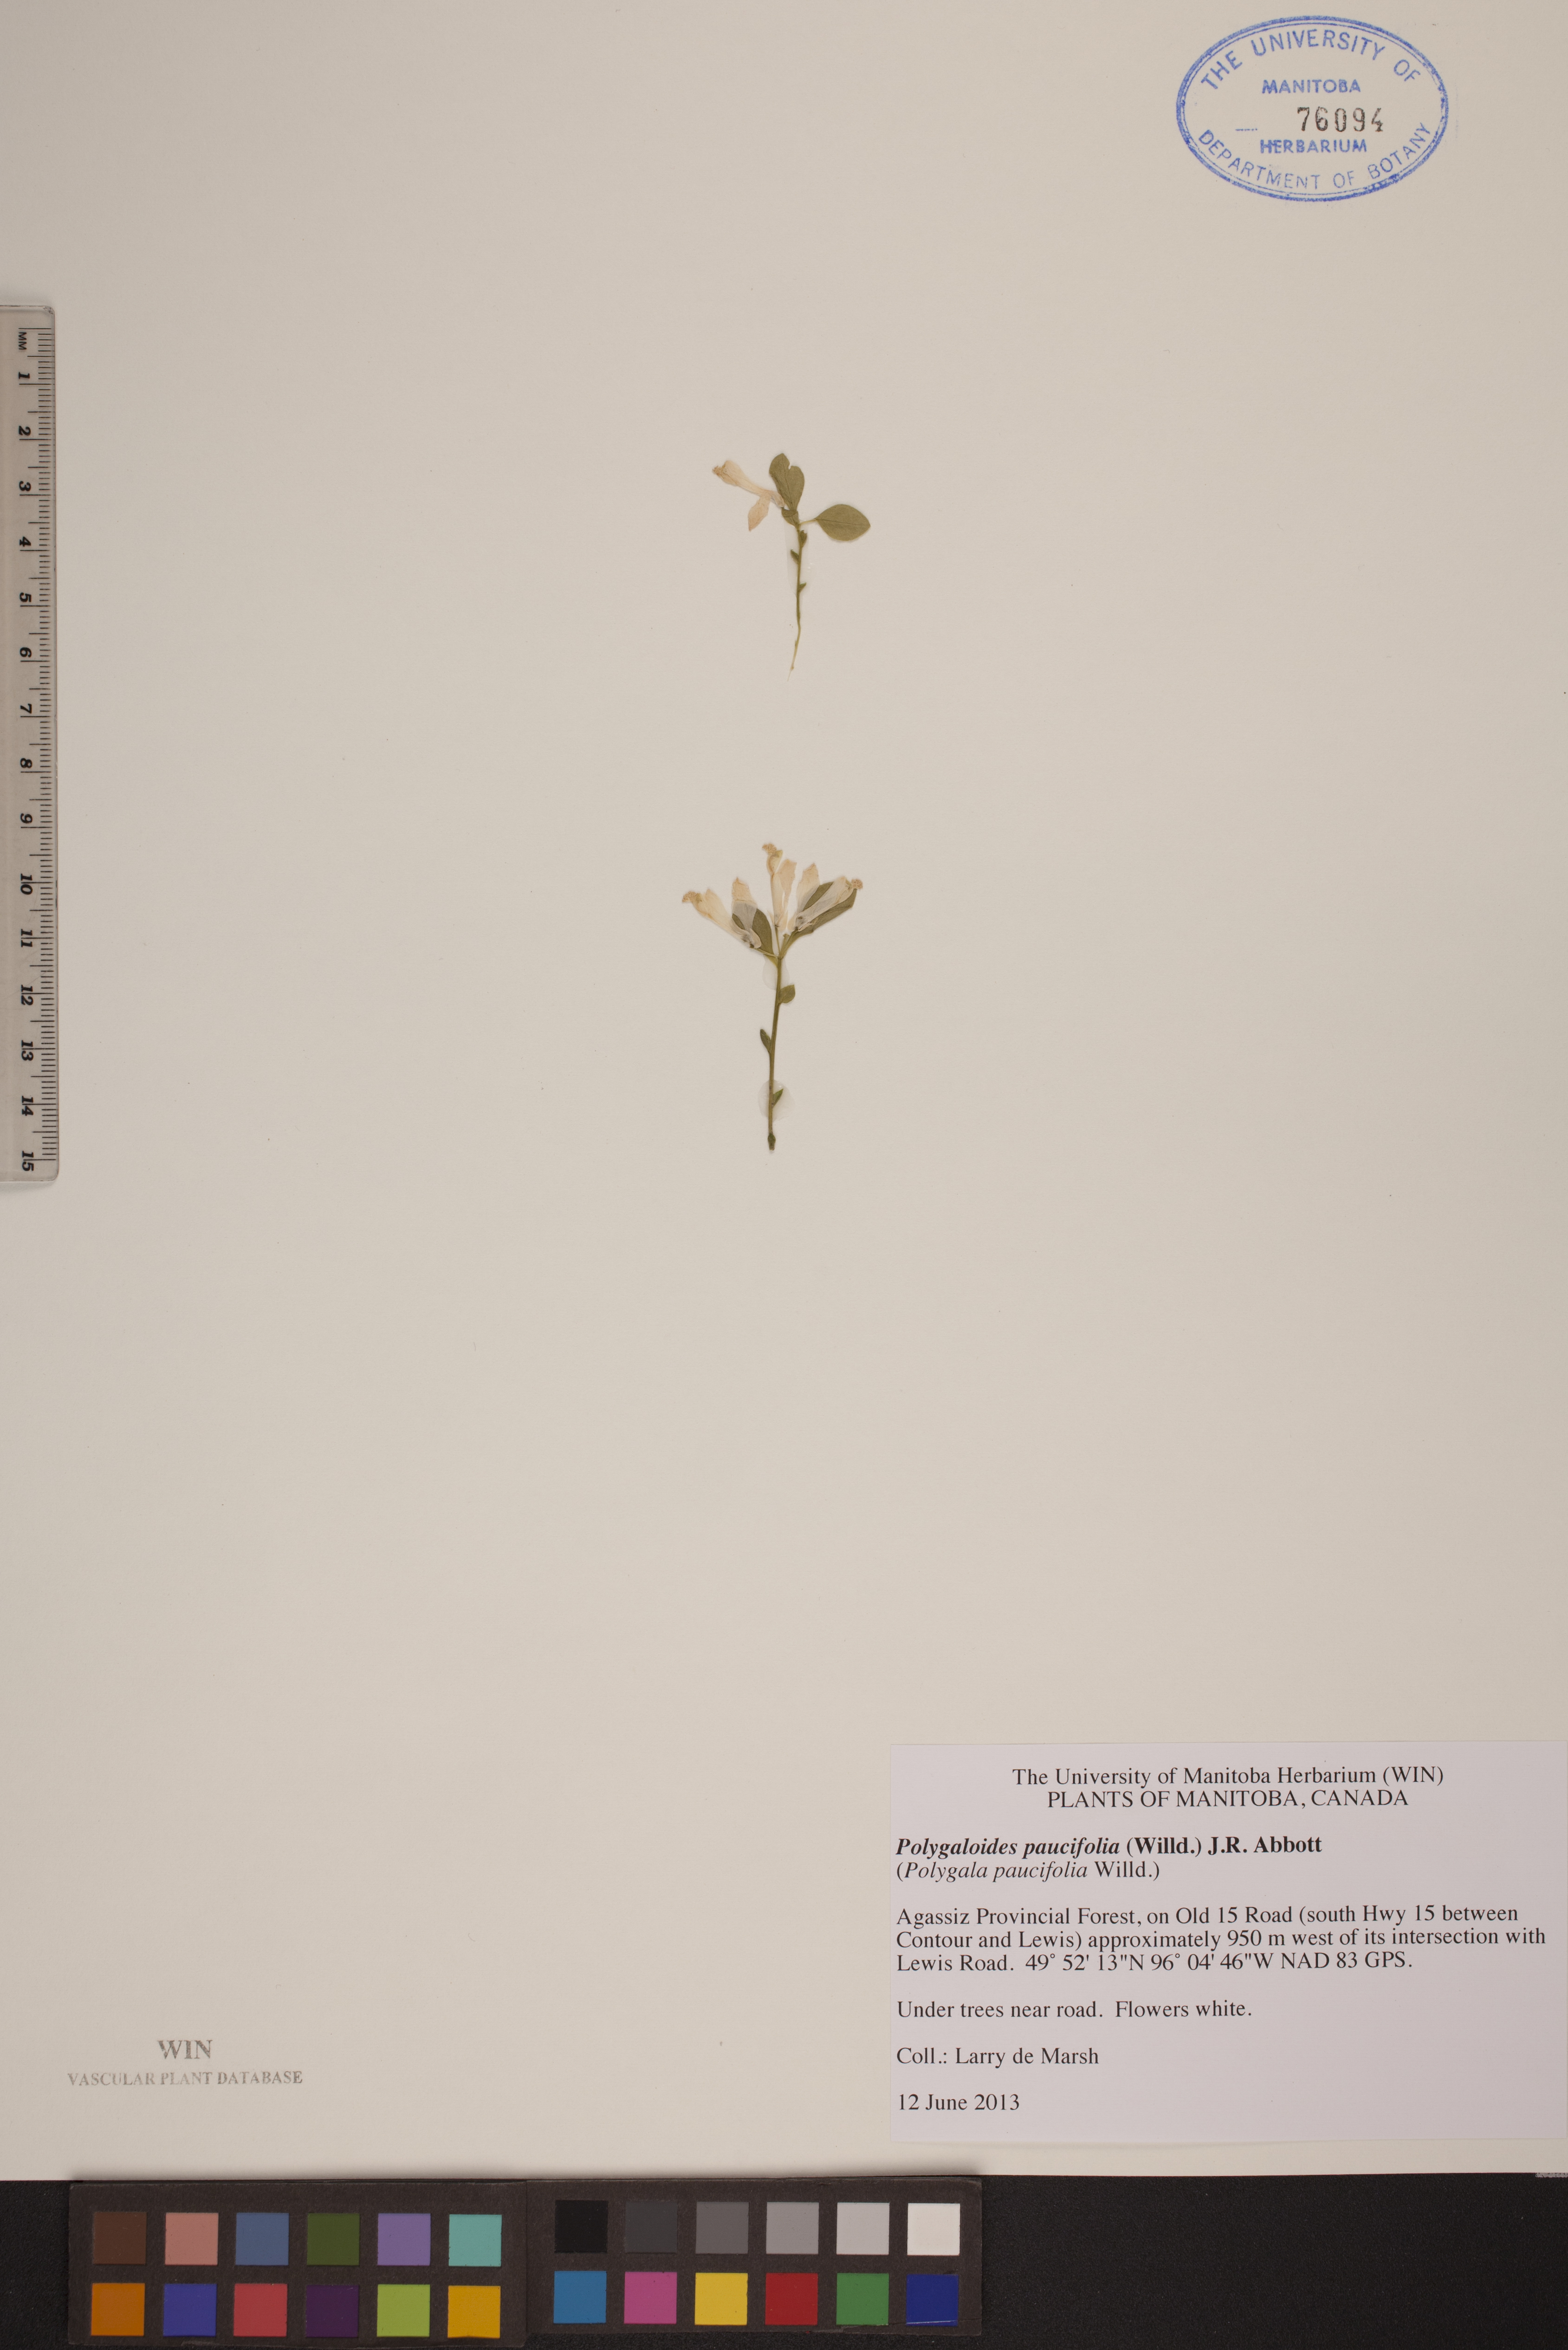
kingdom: Plantae
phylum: Tracheophyta
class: Magnoliopsida
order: Fabales
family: Polygalaceae
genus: Polygaloides
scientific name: Polygaloides paucifolia
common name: Bird-on-the-wing
